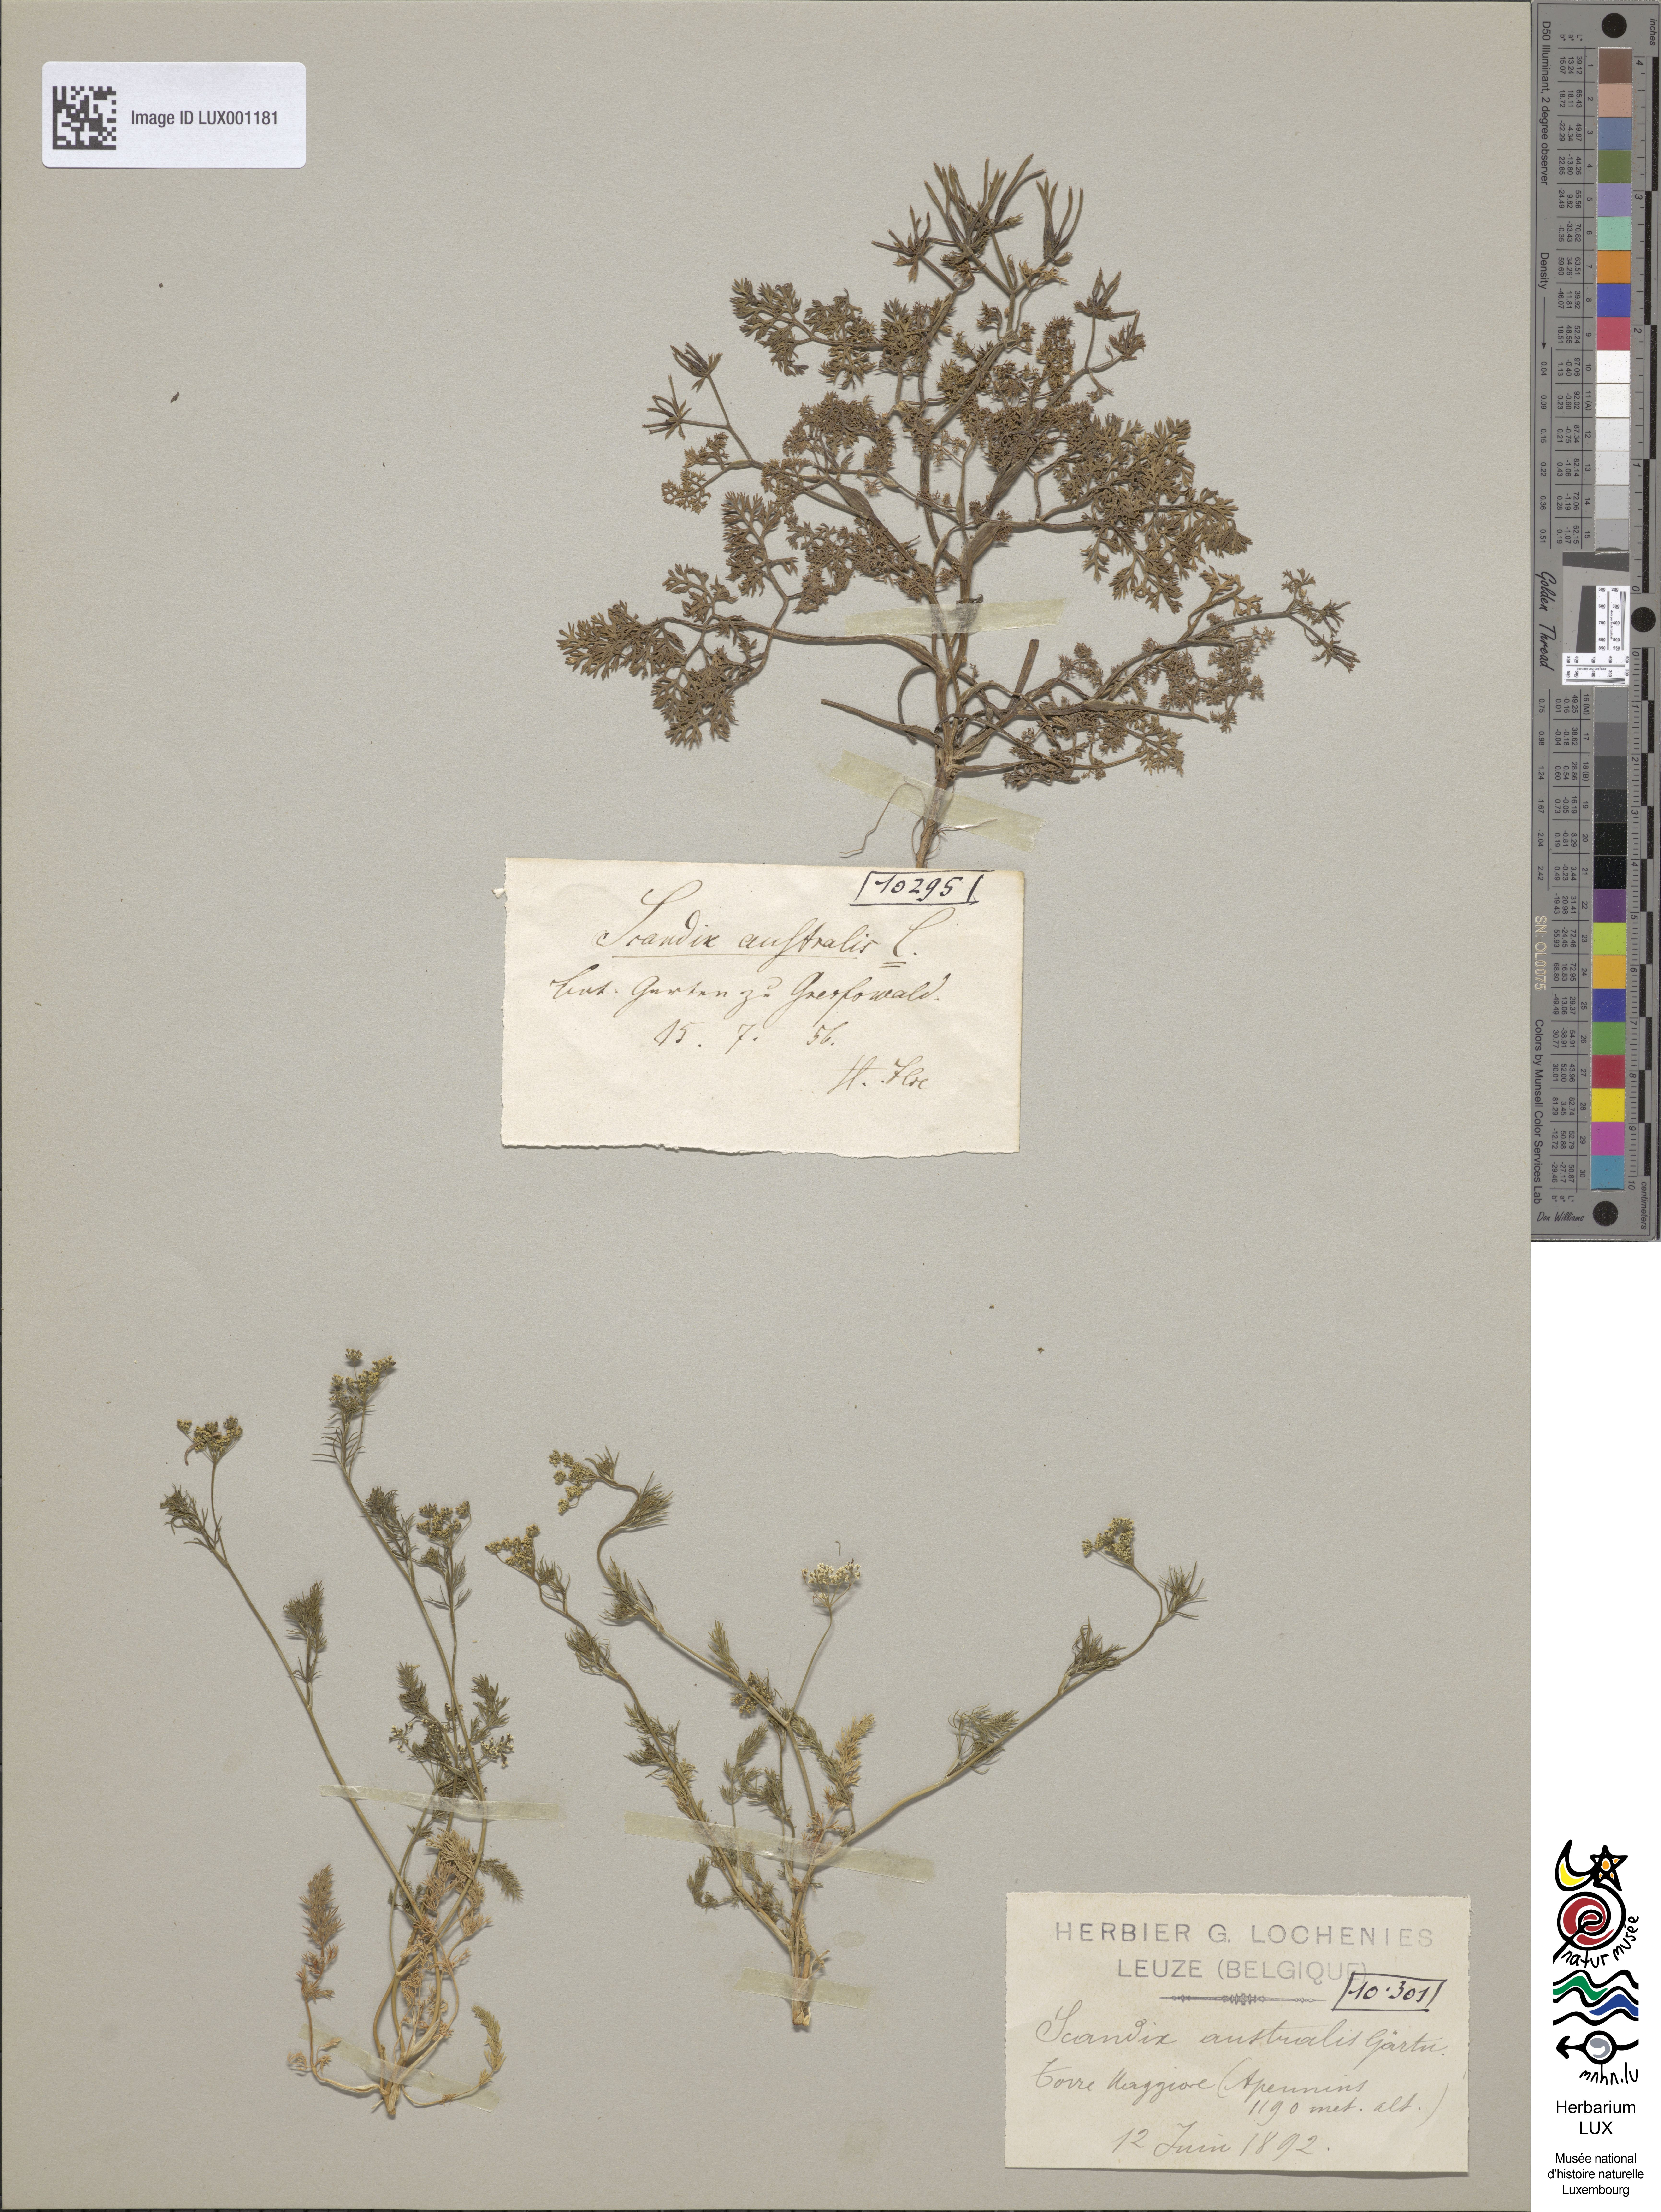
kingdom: Plantae
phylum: Tracheophyta
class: Magnoliopsida
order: Apiales
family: Apiaceae
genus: Scandix
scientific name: Scandix australis
